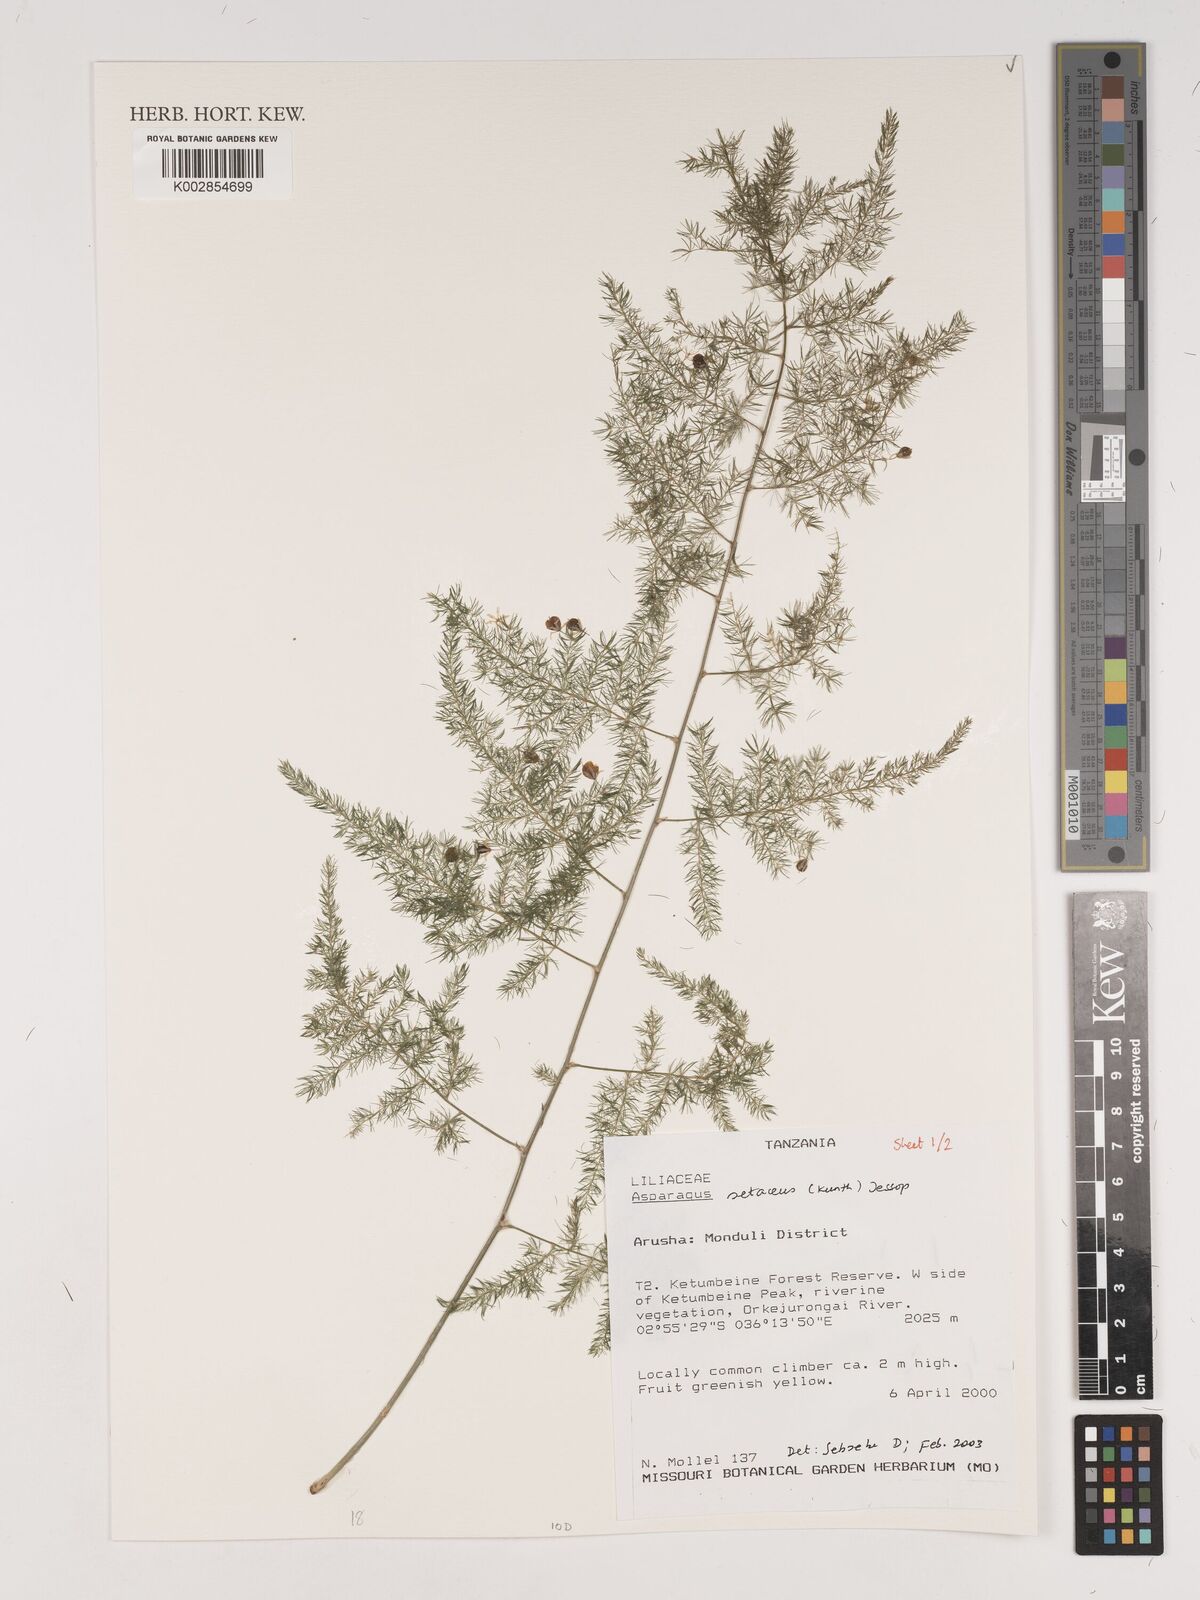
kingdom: Plantae
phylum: Tracheophyta
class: Liliopsida
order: Asparagales
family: Asparagaceae
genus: Asparagus
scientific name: Asparagus setaceus
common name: Common asparagus fern
